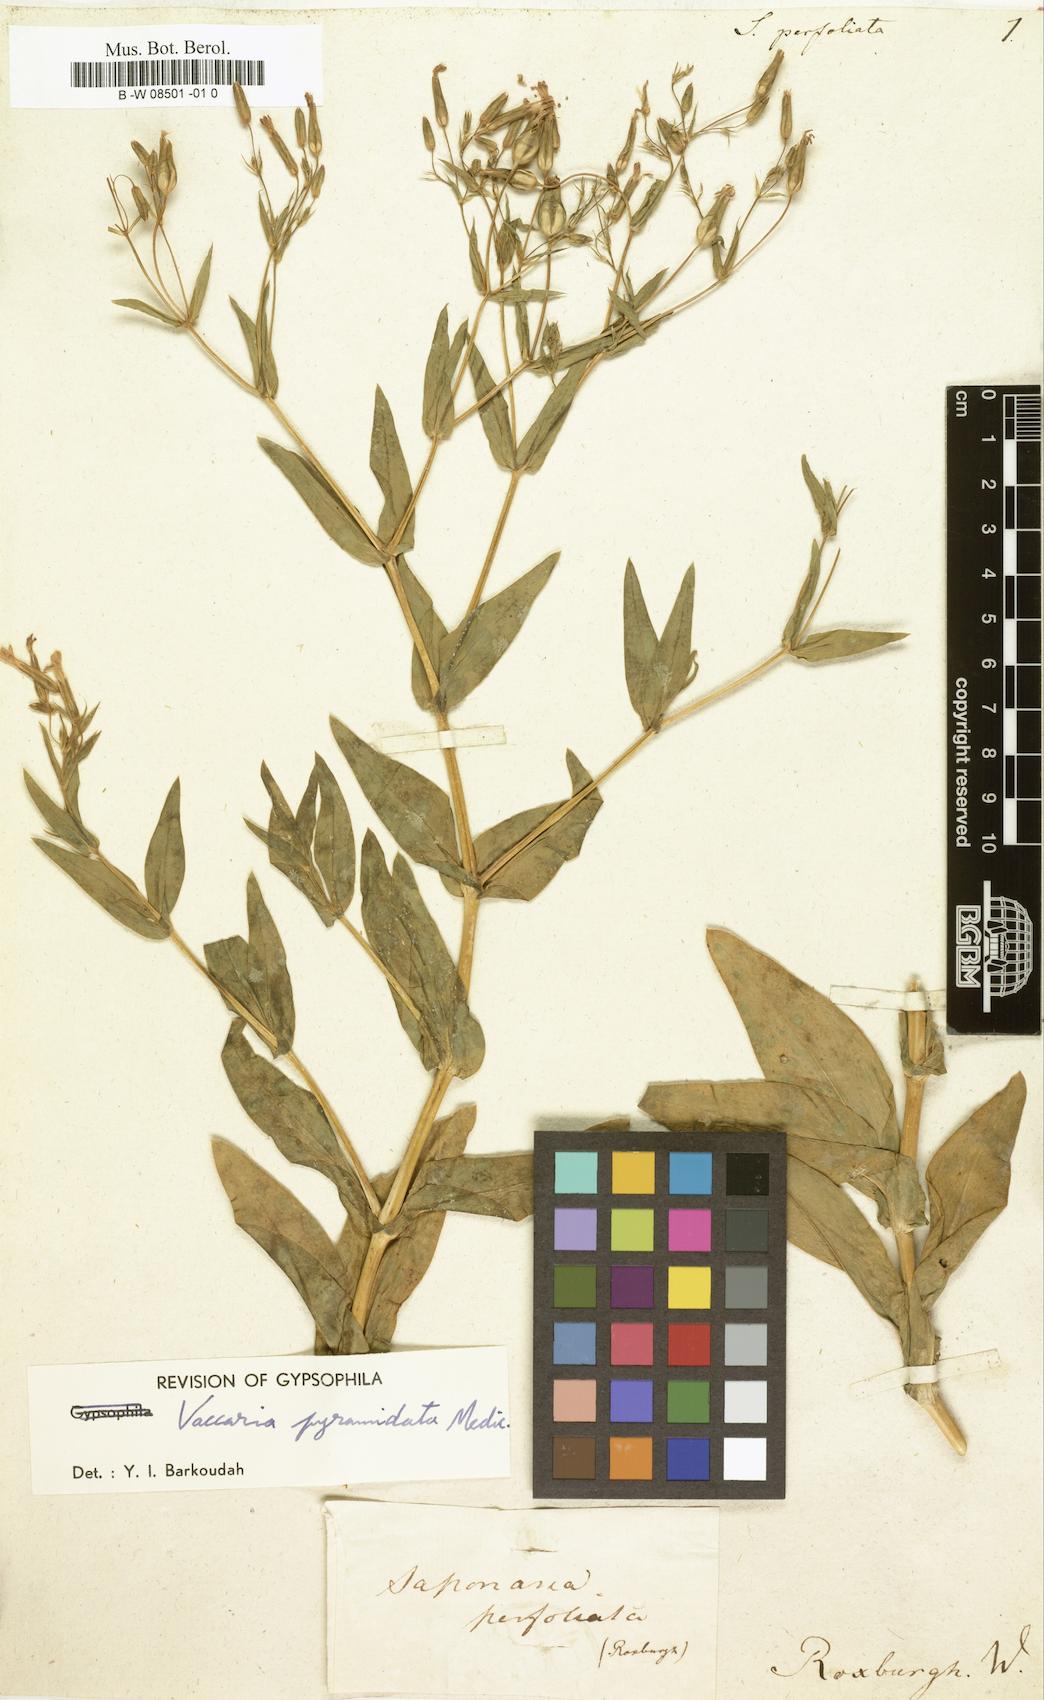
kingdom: Plantae
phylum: Tracheophyta
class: Magnoliopsida
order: Caryophyllales
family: Caryophyllaceae
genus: Gypsophila
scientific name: Gypsophila vaccaria
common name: Cow soapwort
